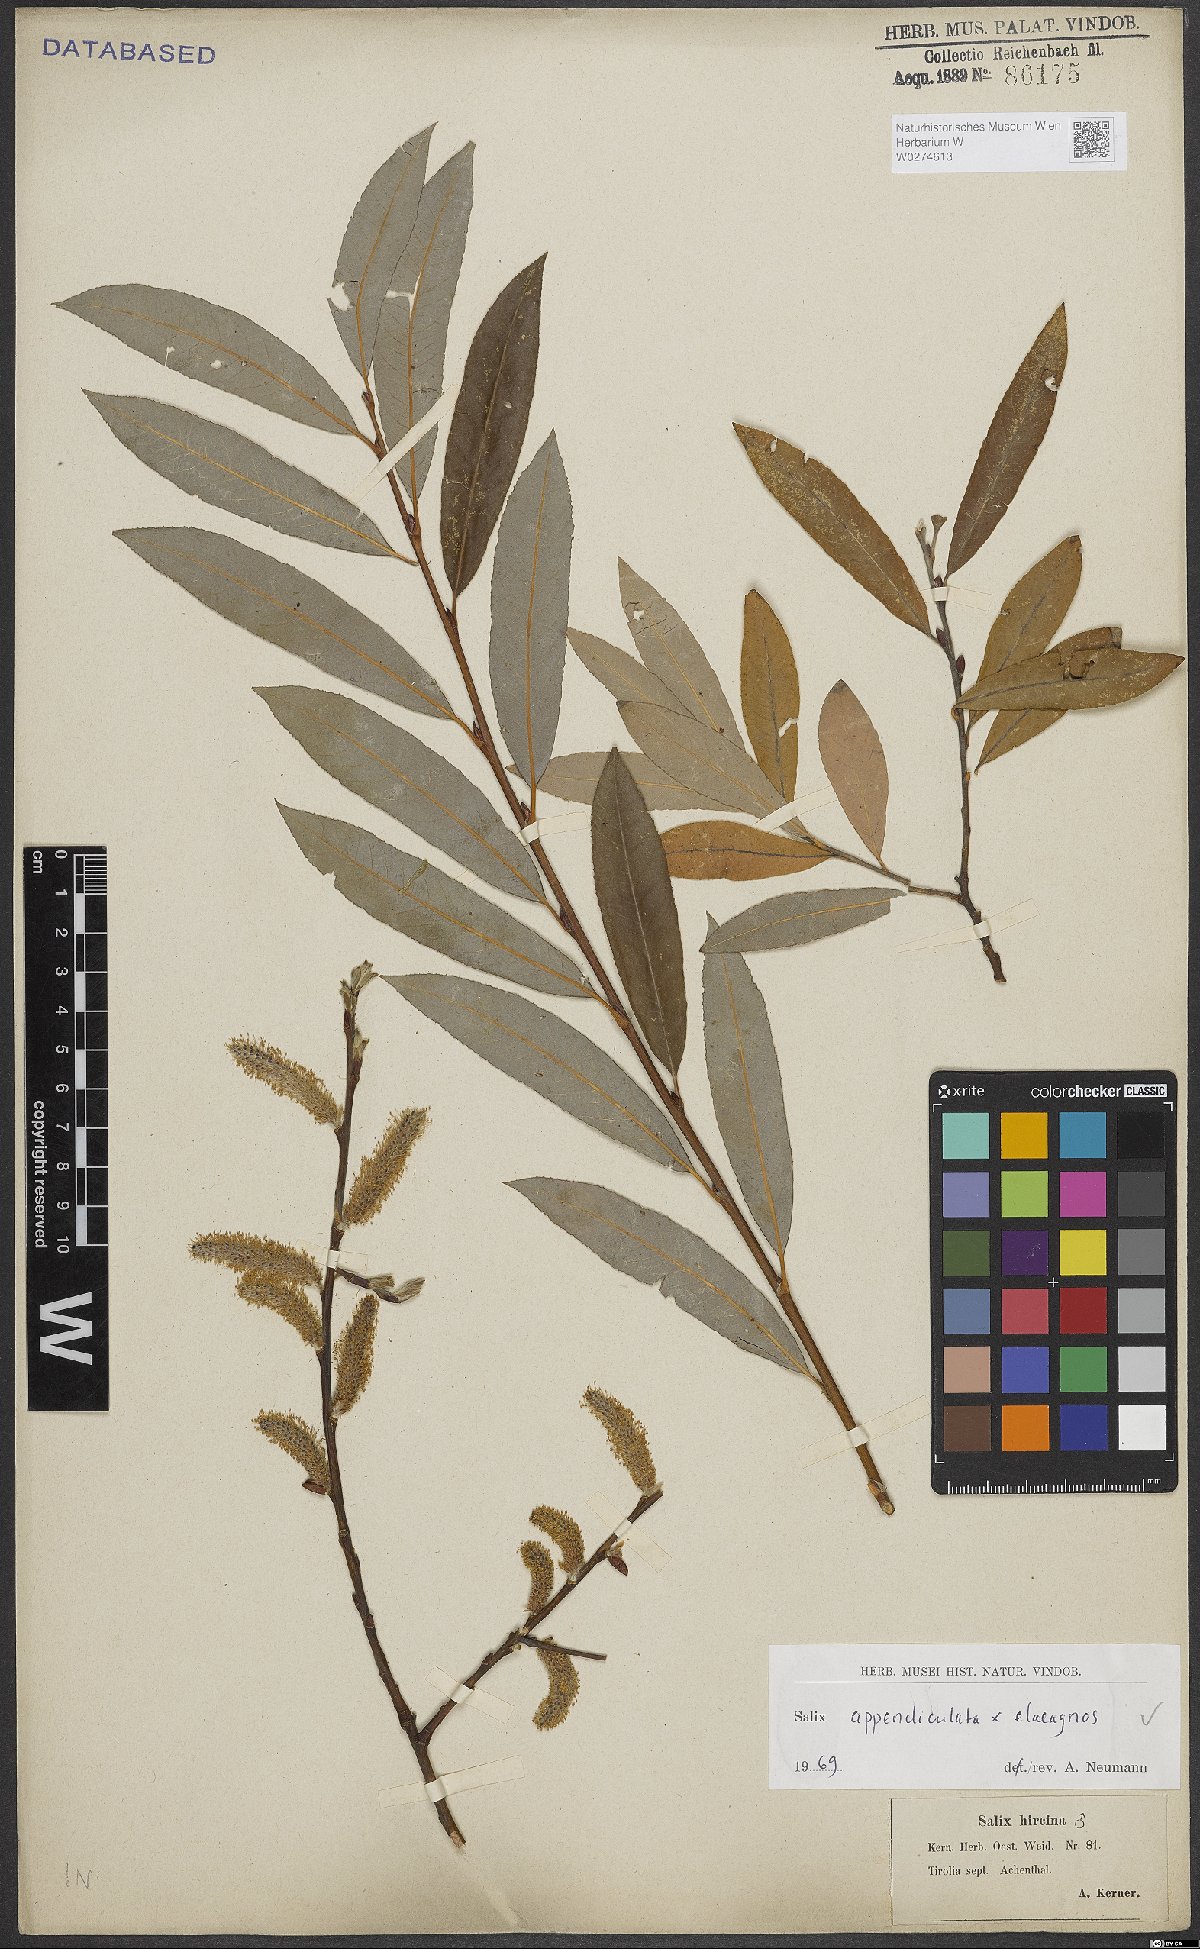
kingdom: Plantae
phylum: Tracheophyta
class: Magnoliopsida
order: Malpighiales
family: Salicaceae
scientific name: Salicaceae
